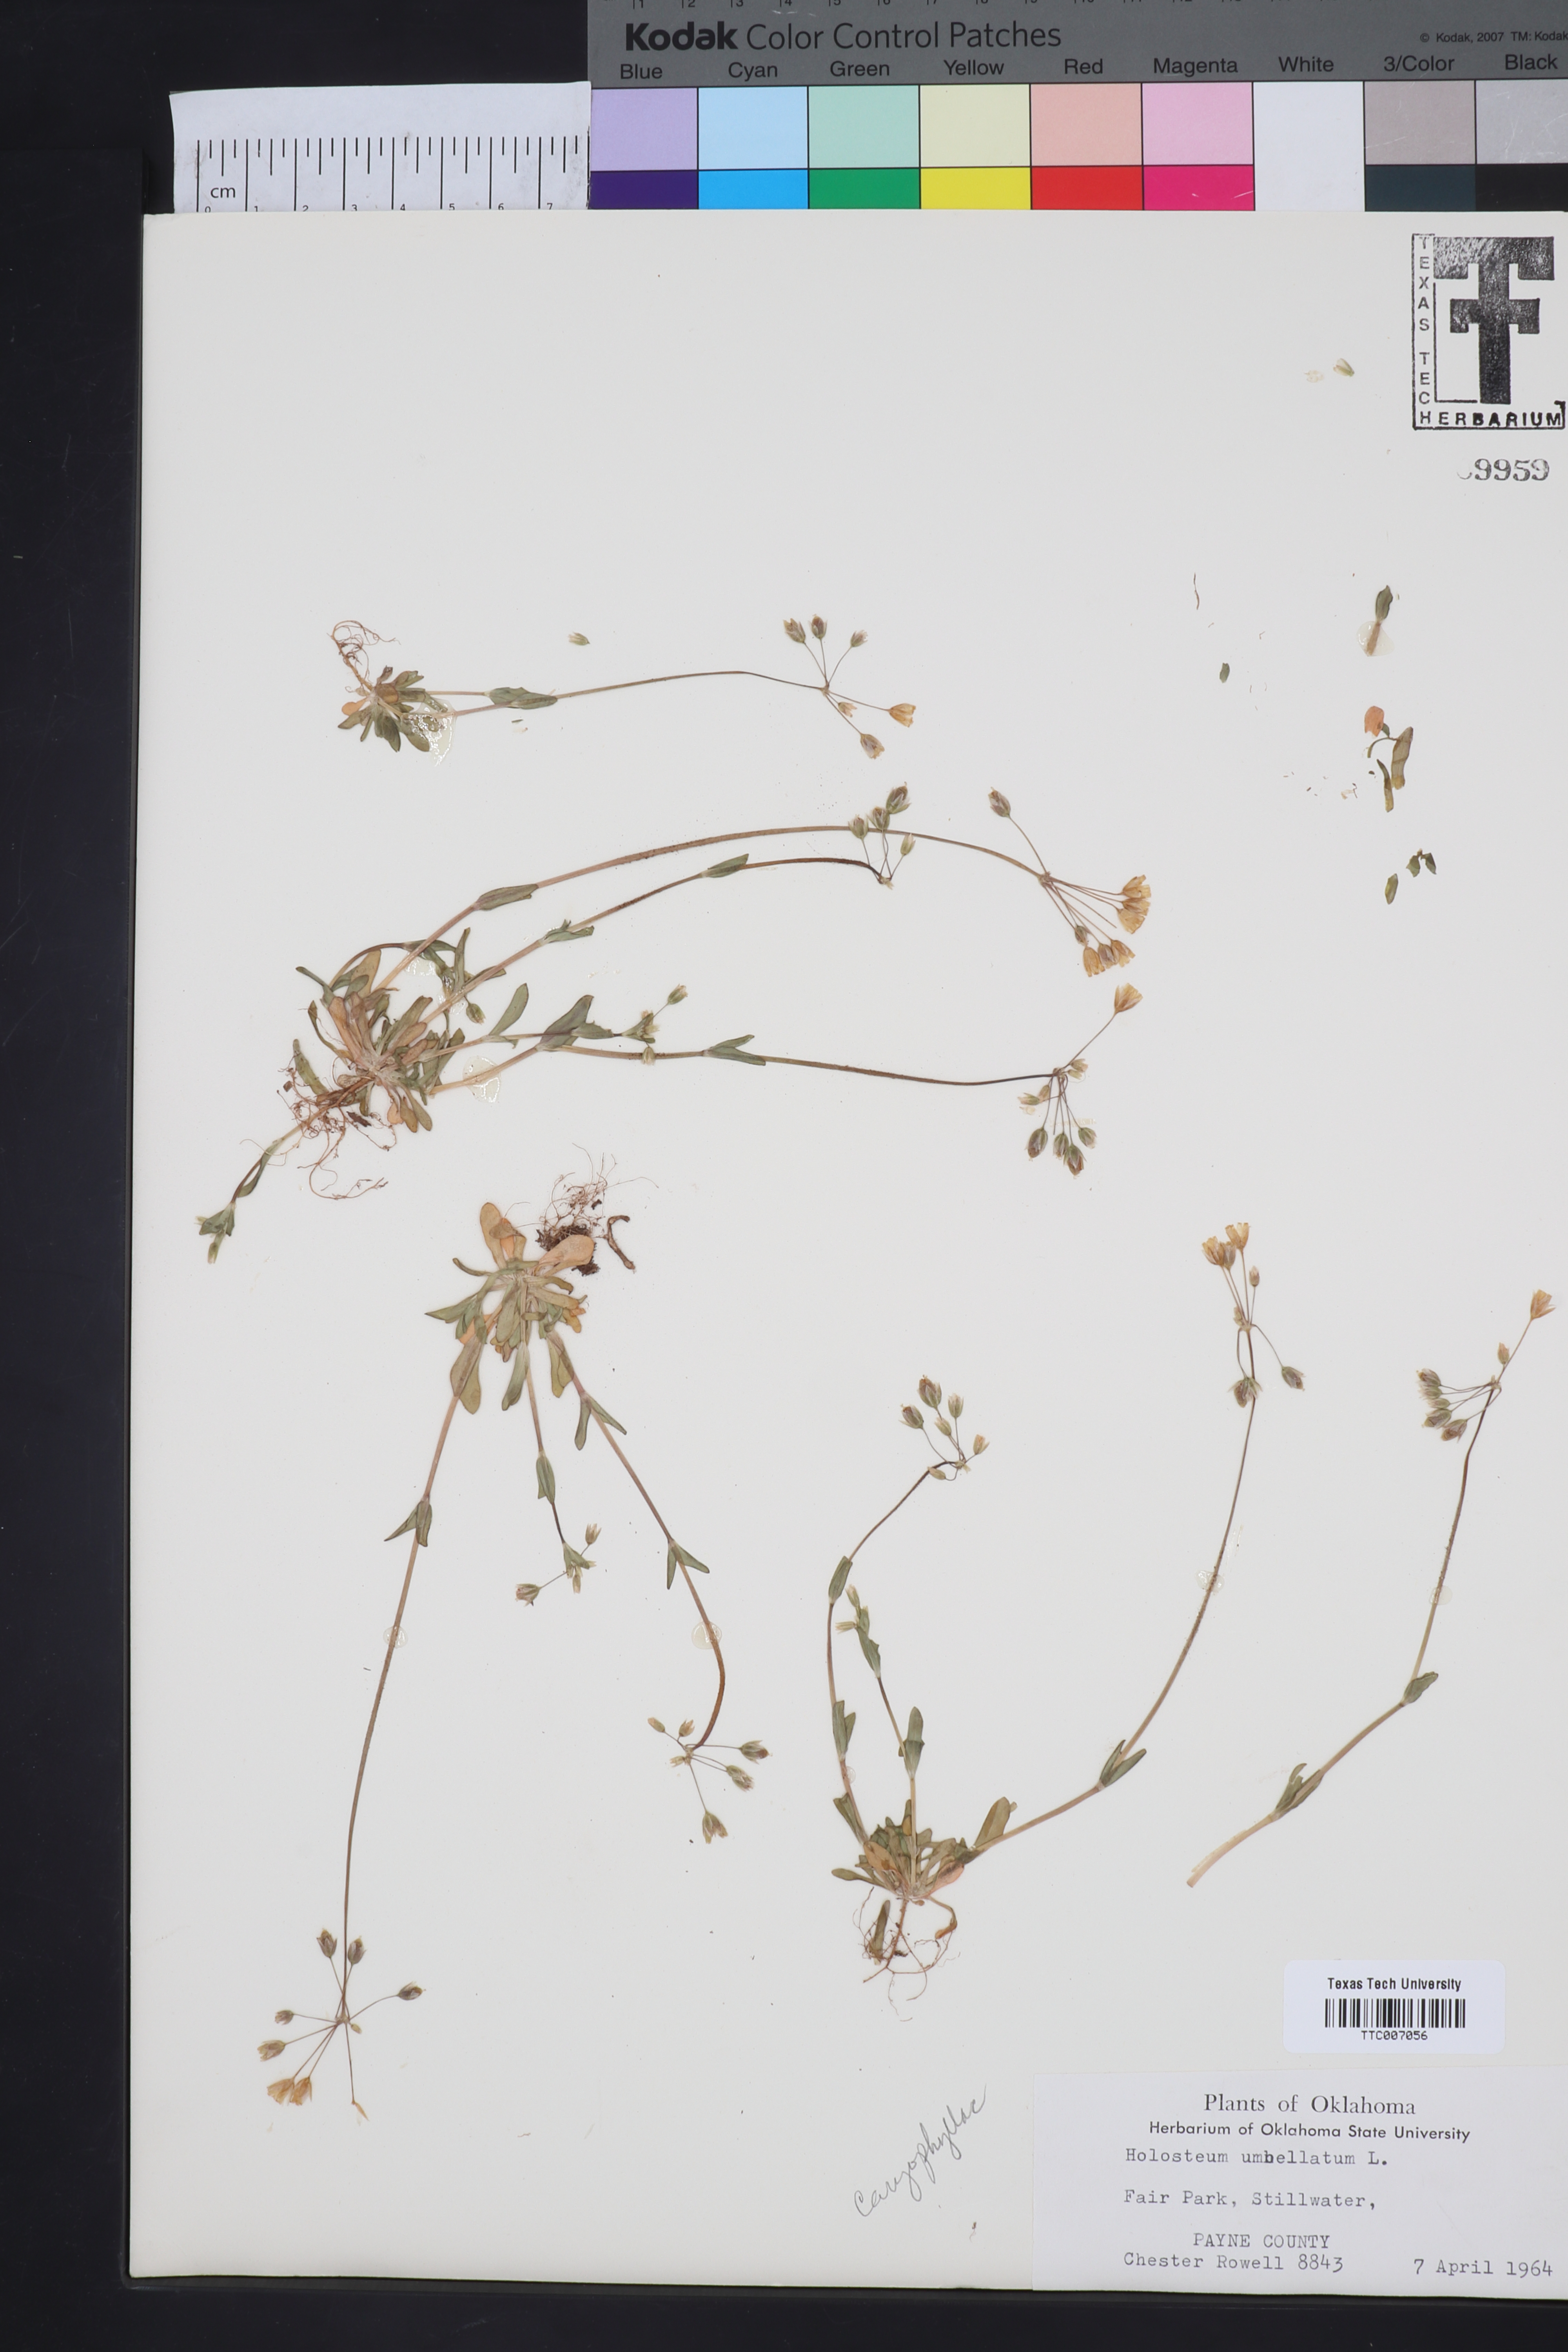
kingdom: Plantae
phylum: Tracheophyta
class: Magnoliopsida
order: Caryophyllales
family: Caryophyllaceae
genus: Holosteum
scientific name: Holosteum umbellatum
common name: Jagged chickweed
